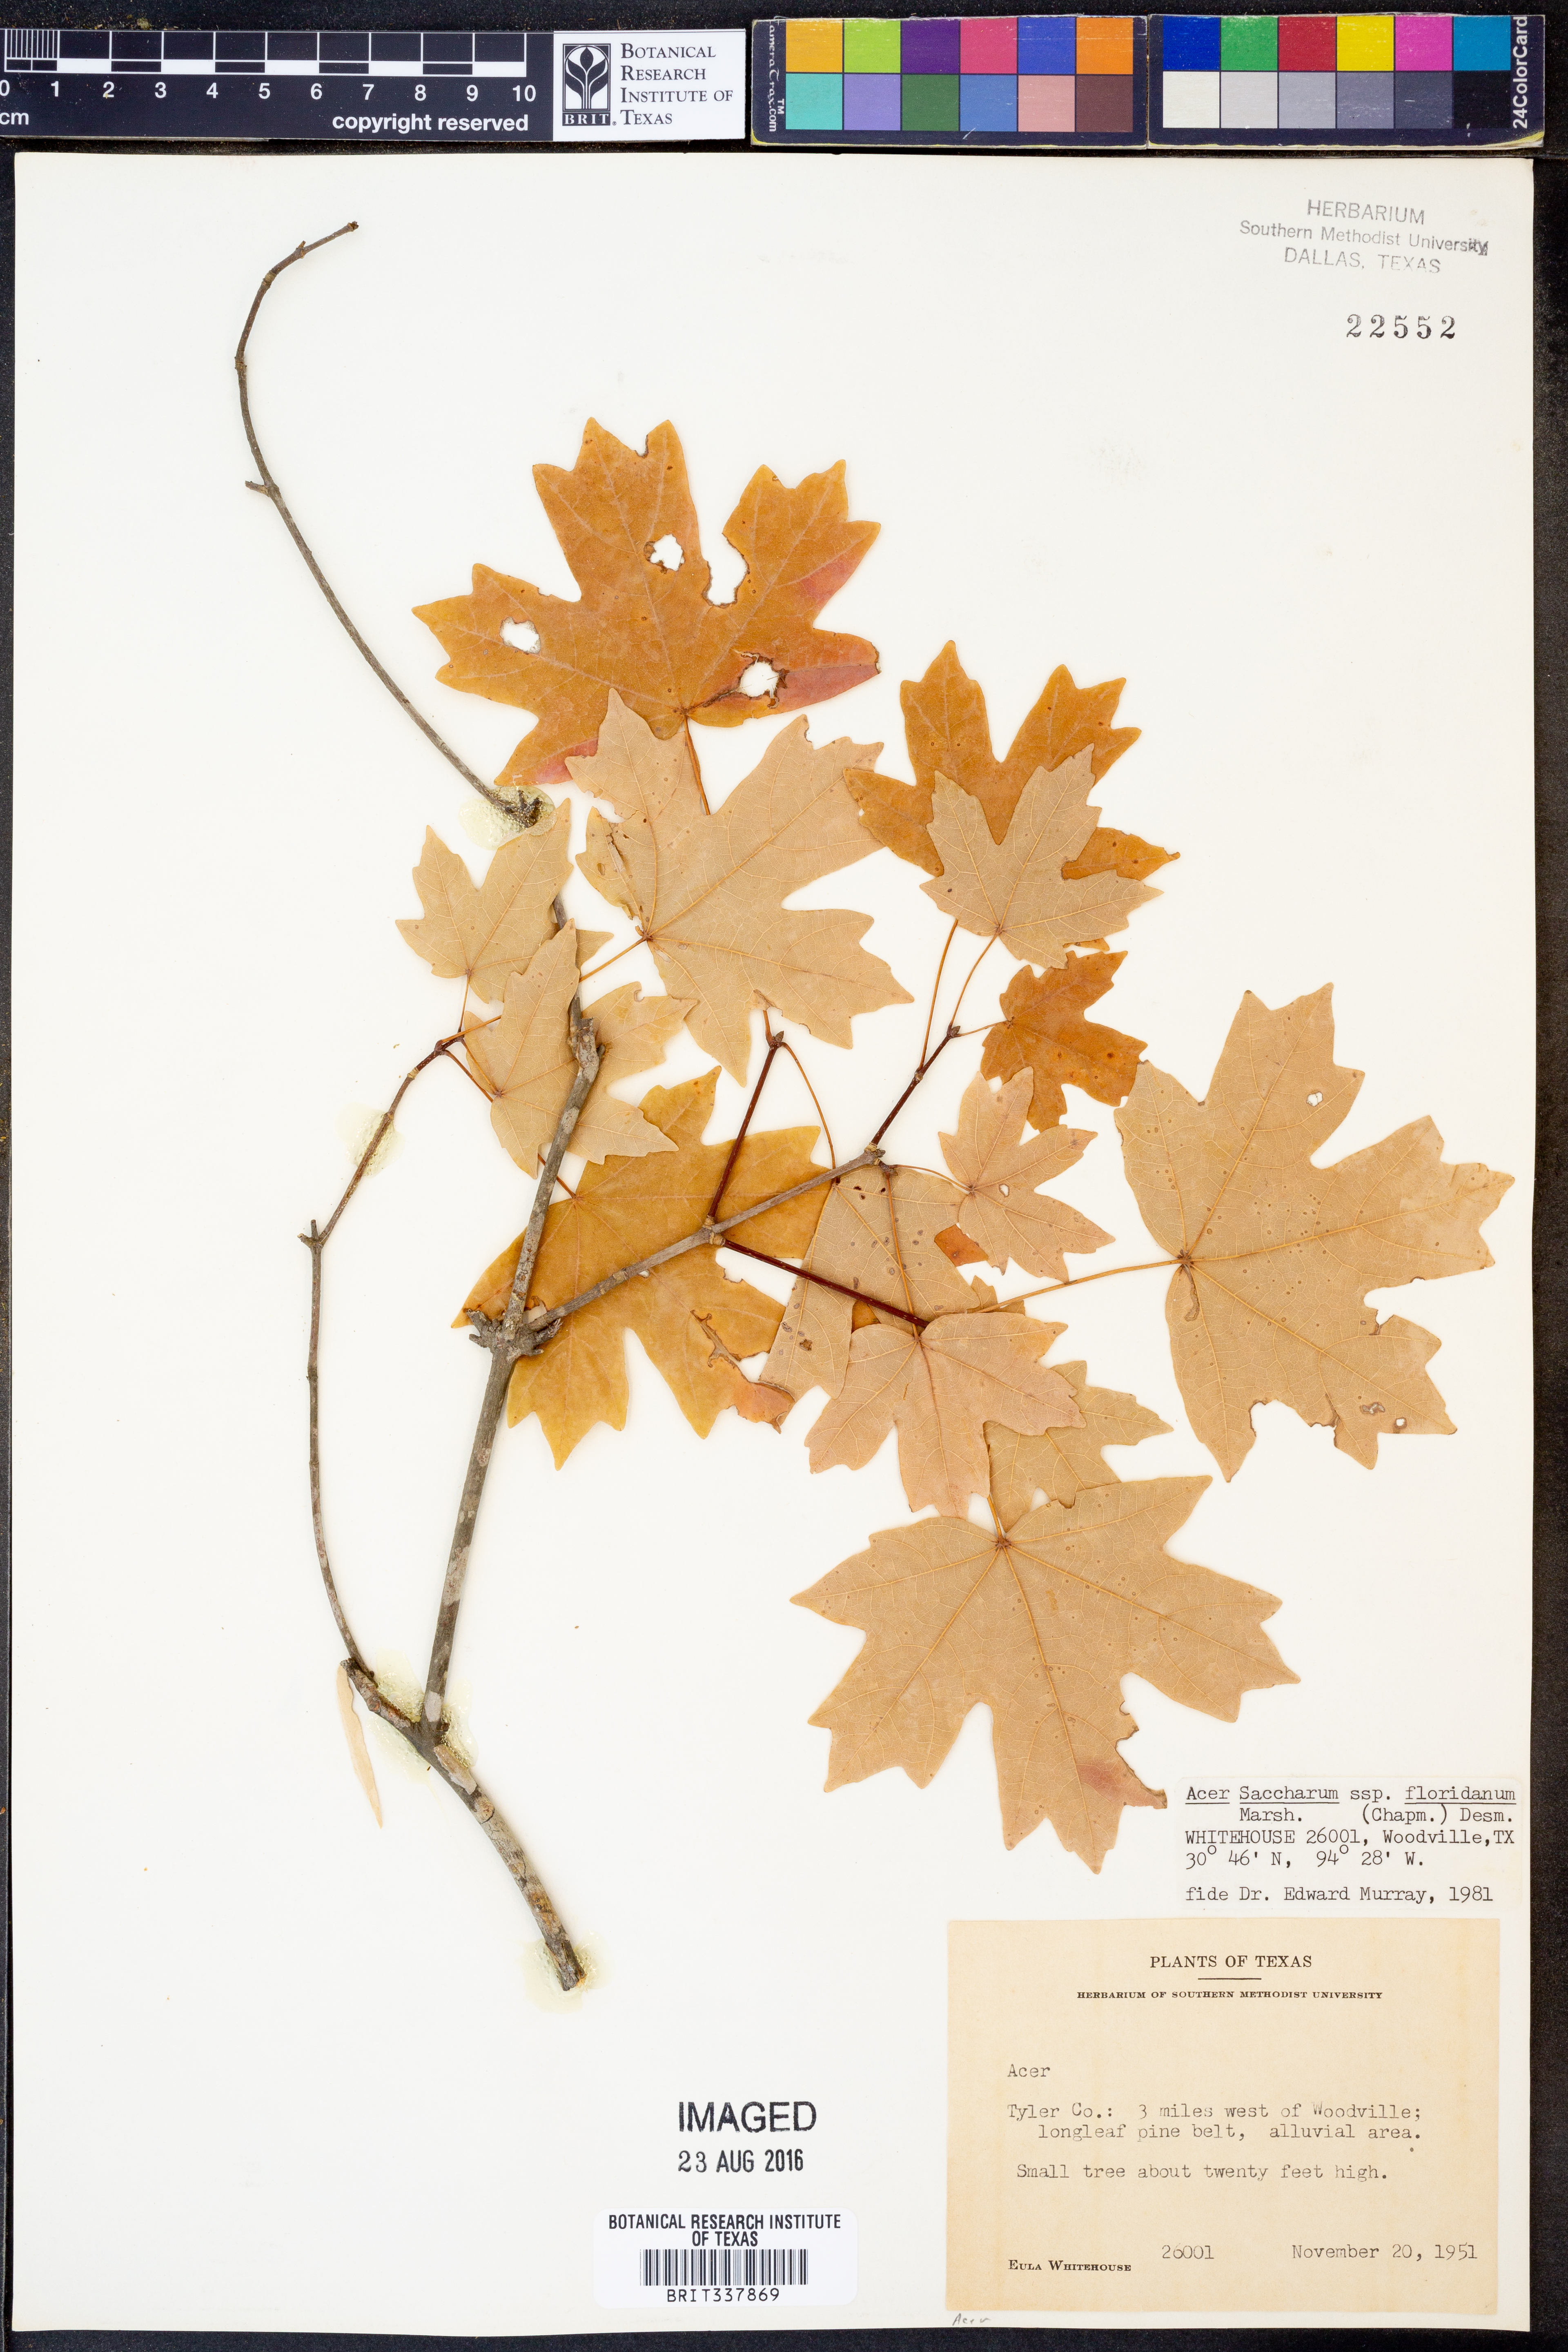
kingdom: Plantae
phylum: Tracheophyta
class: Magnoliopsida
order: Sapindales
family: Sapindaceae
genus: Acer
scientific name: Acer barbatum
